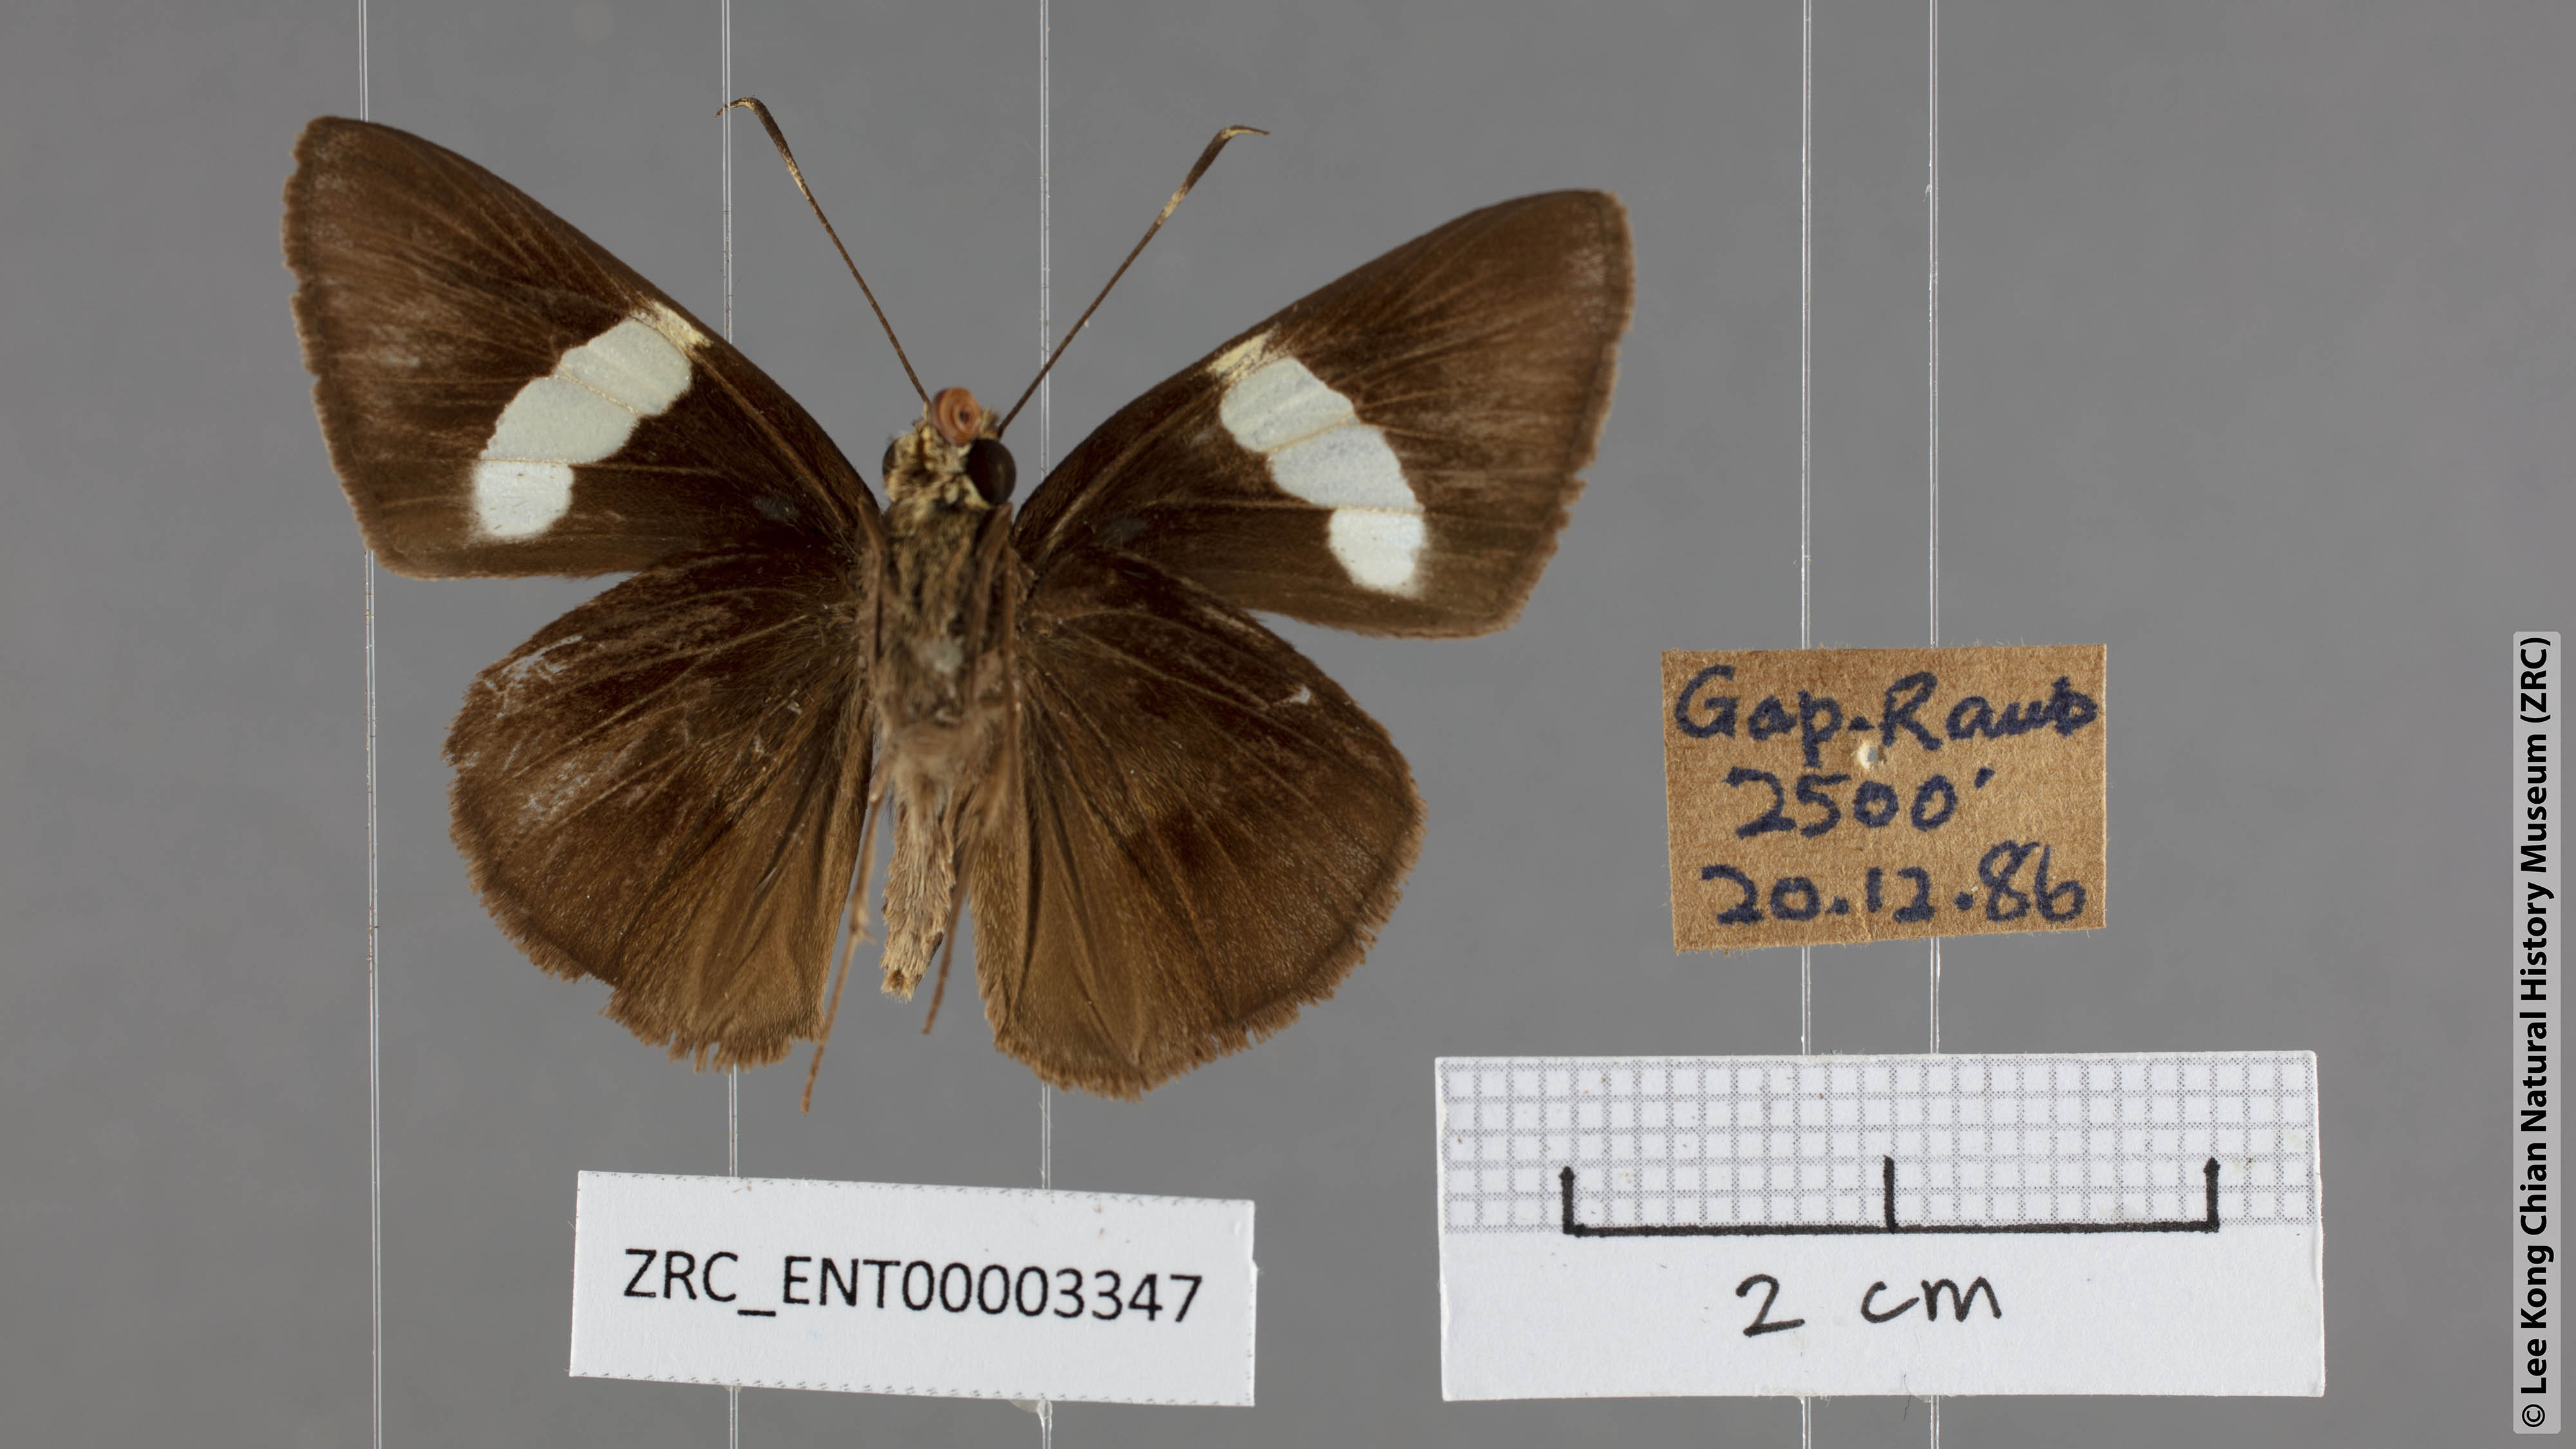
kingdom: Animalia
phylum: Arthropoda
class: Insecta
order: Lepidoptera
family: Hesperiidae
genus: Notocrypta
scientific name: Notocrypta clavata
